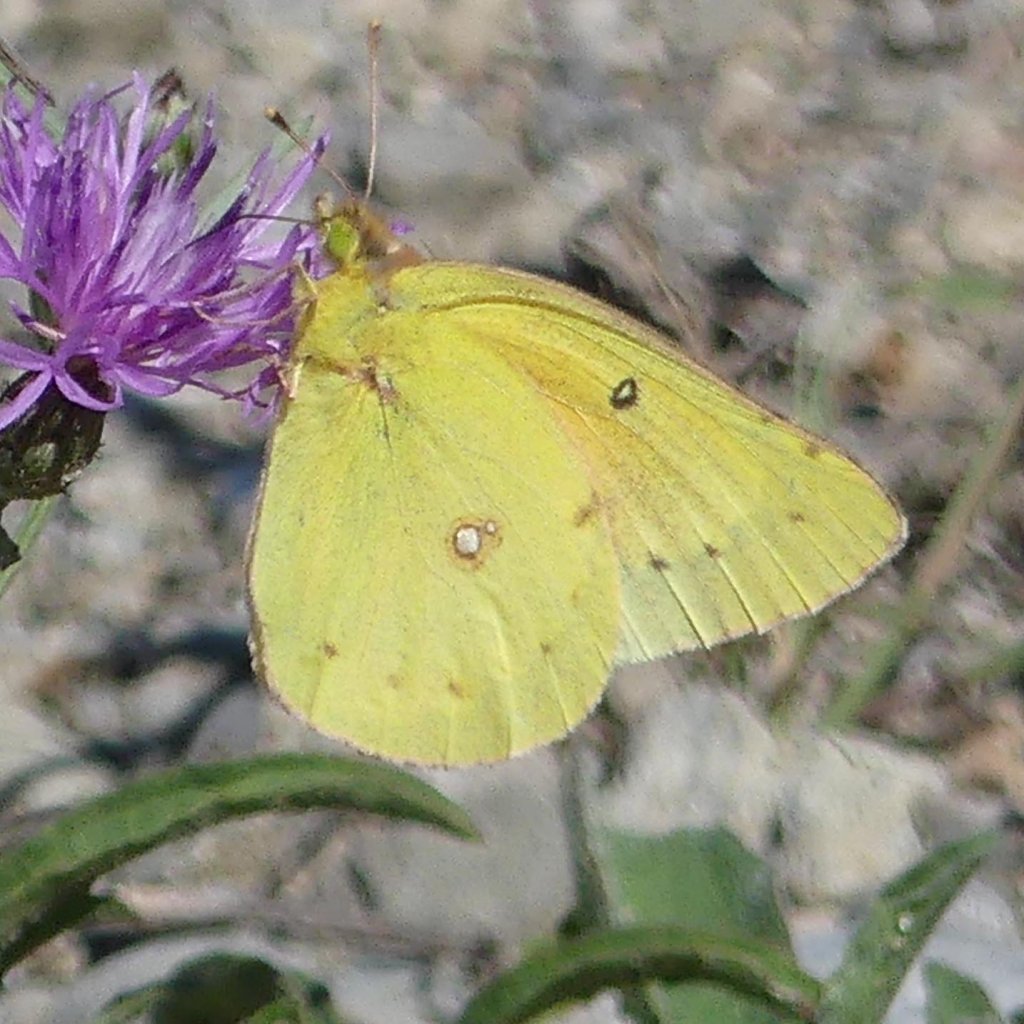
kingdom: Animalia
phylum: Arthropoda
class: Insecta
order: Lepidoptera
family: Pieridae
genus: Colias
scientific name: Colias eurytheme
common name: Orange Sulphur
